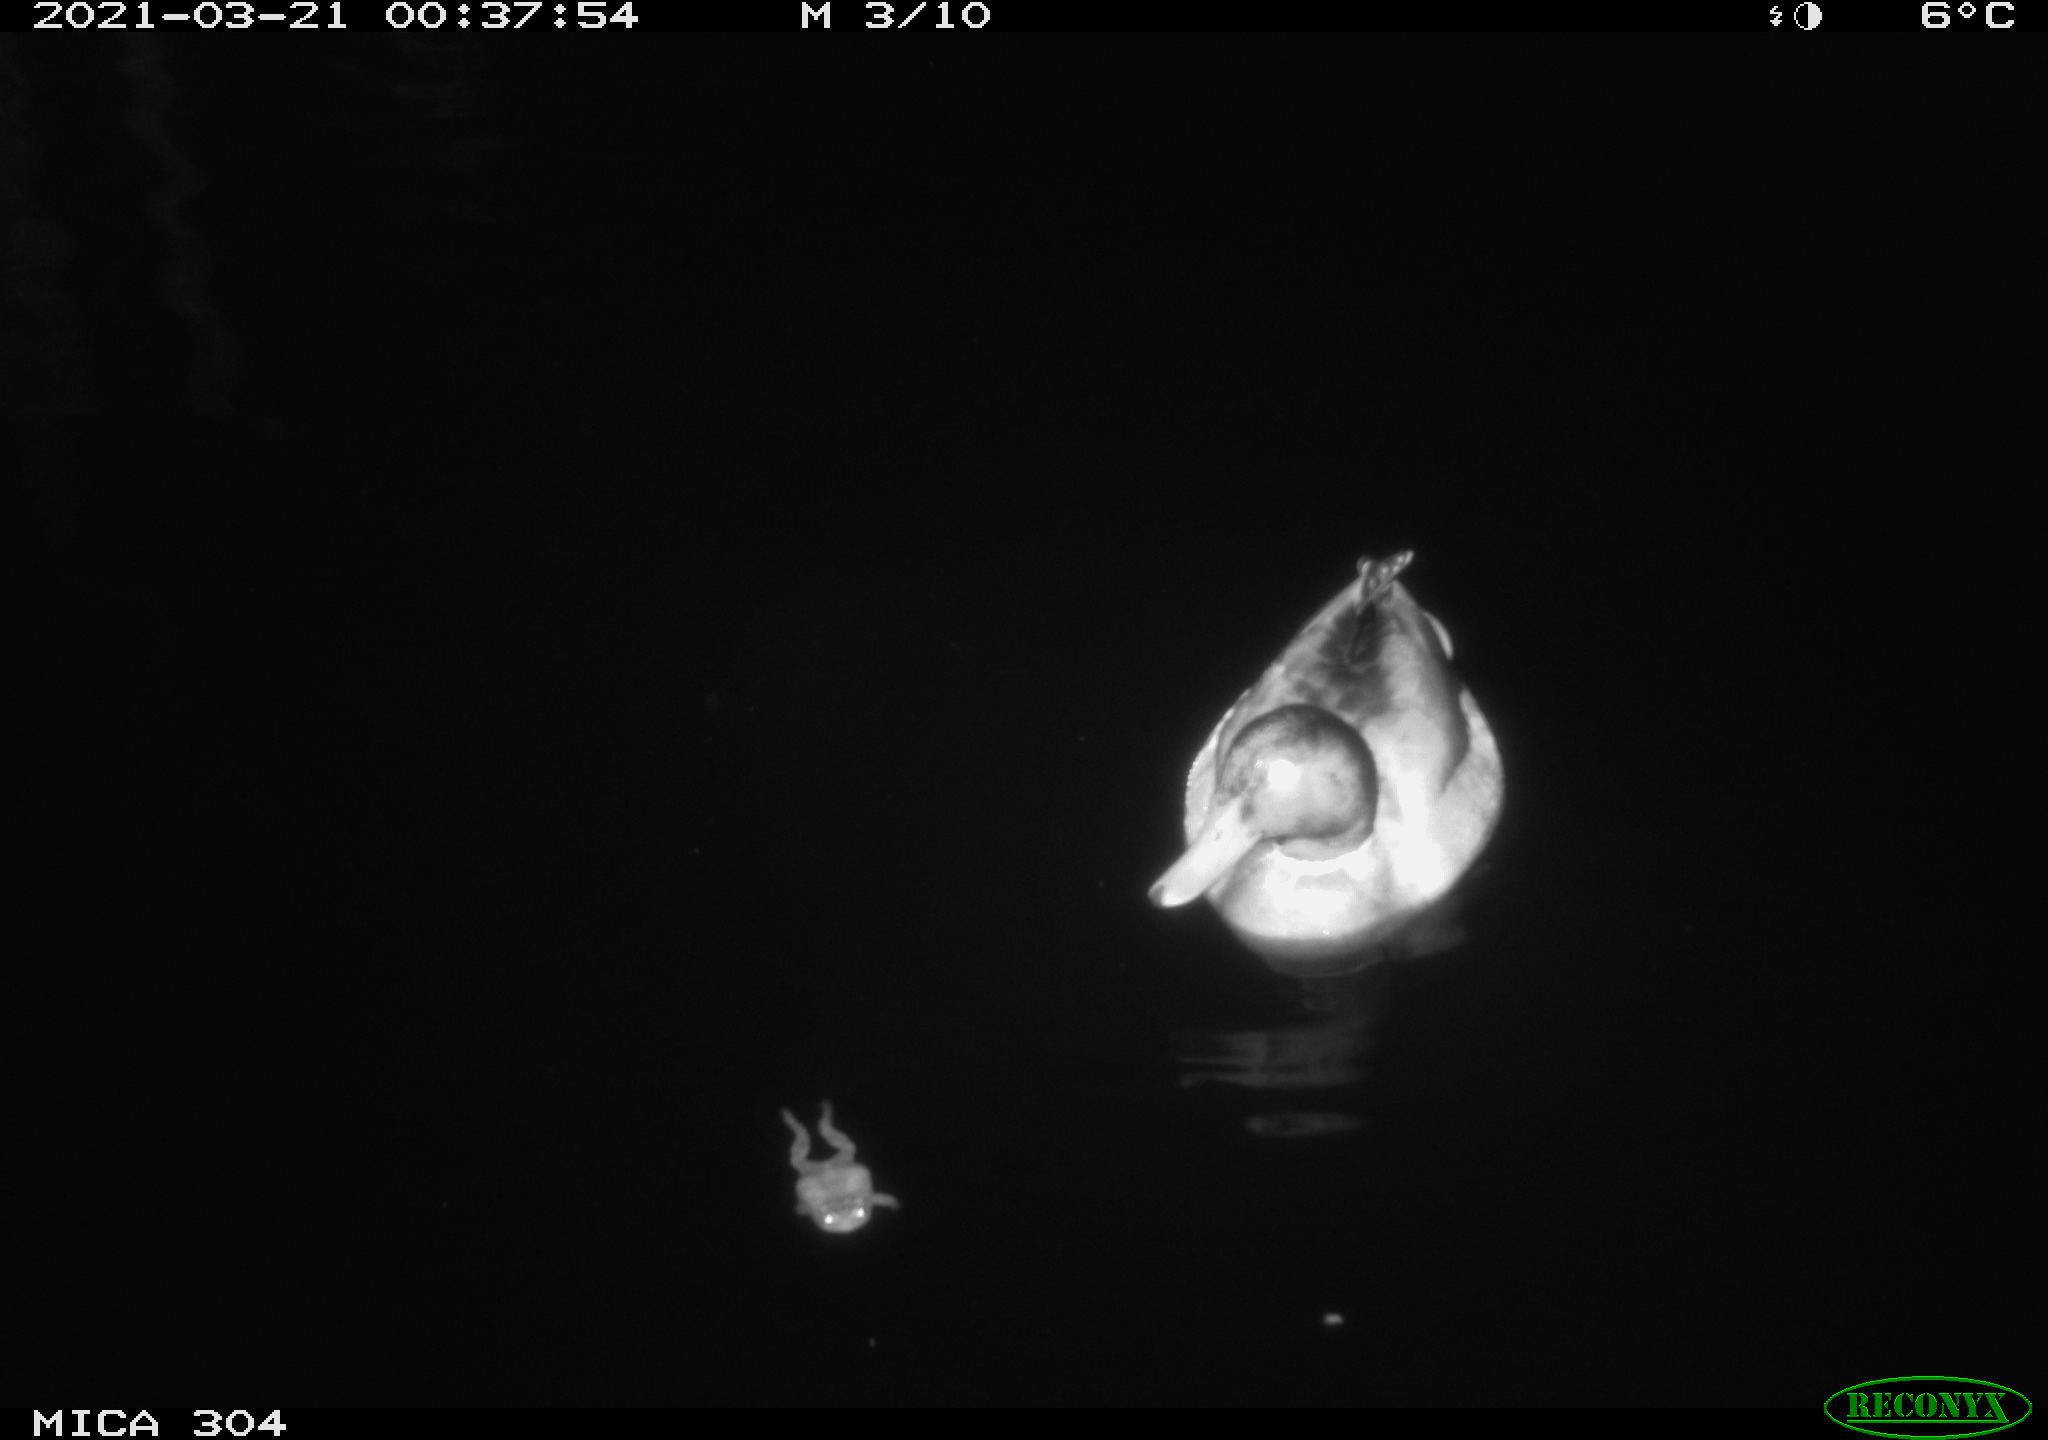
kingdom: Animalia
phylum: Chordata
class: Aves
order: Anseriformes
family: Anatidae
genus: Anas
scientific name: Anas platyrhynchos
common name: Mallard
